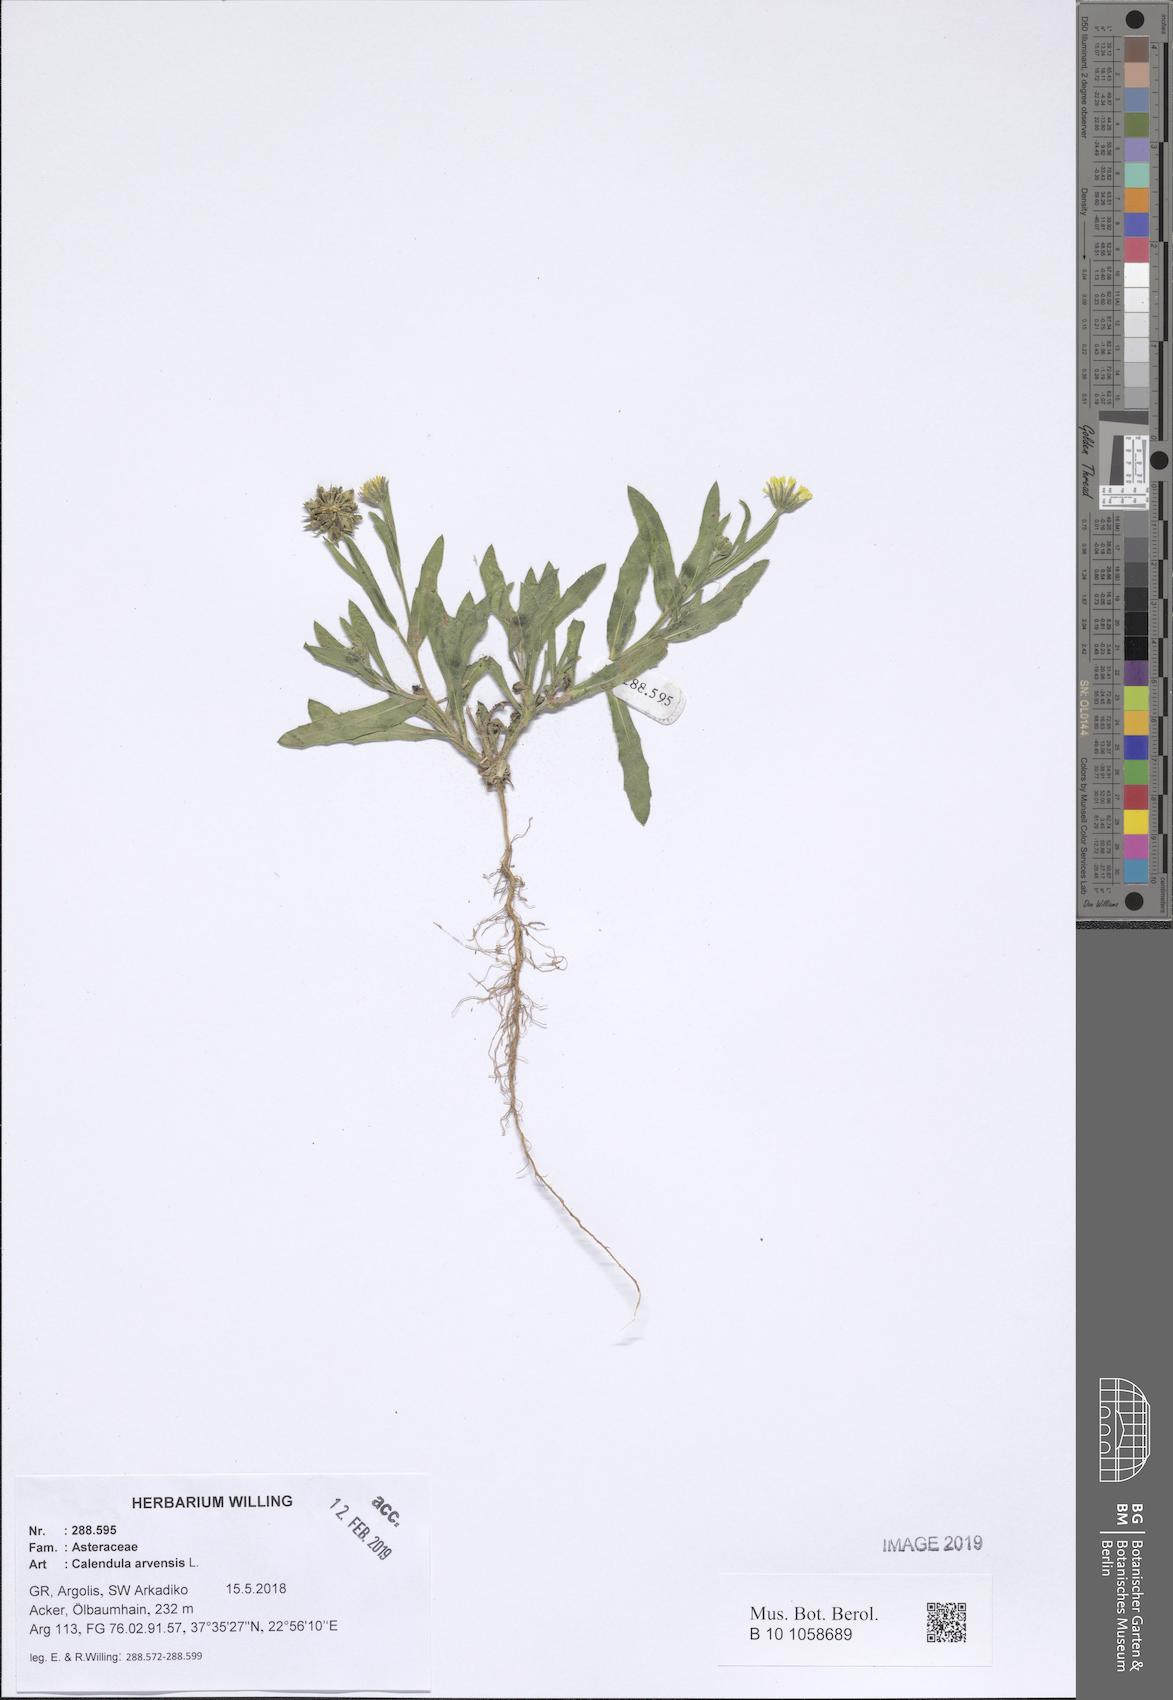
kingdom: Plantae
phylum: Tracheophyta
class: Magnoliopsida
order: Asterales
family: Asteraceae
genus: Calendula
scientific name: Calendula arvensis
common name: Field marigold
